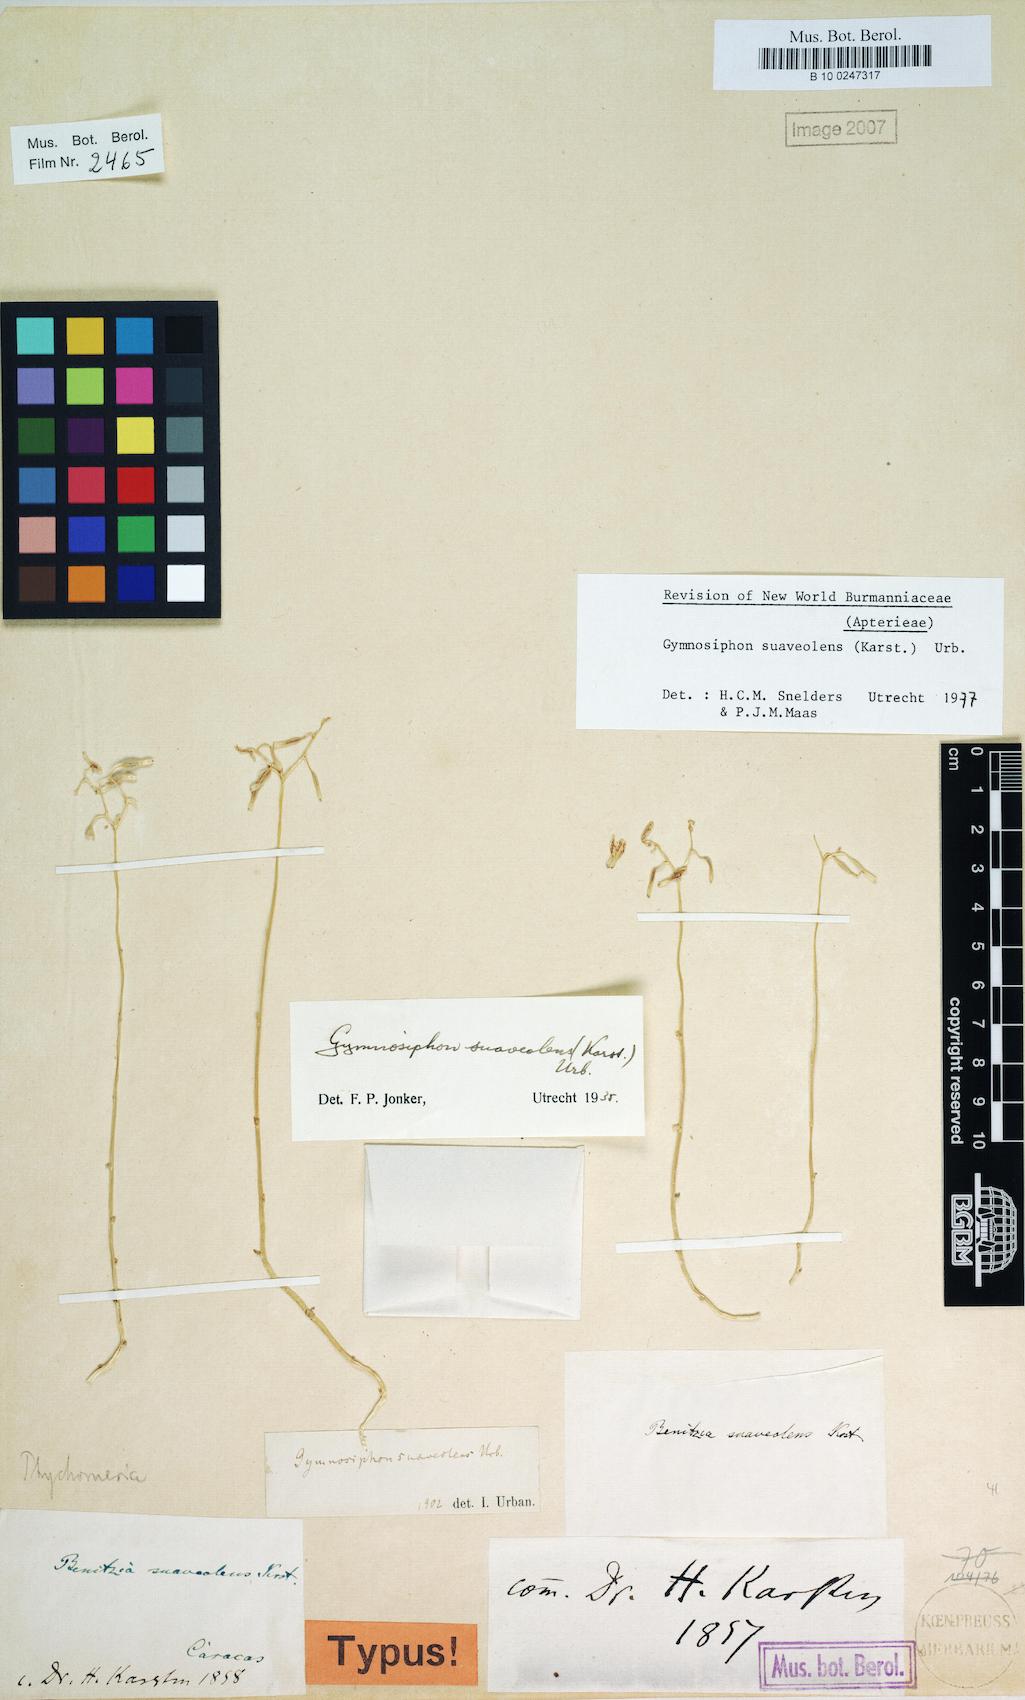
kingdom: Plantae
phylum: Tracheophyta
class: Liliopsida
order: Dioscoreales
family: Burmanniaceae
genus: Gymnosiphon
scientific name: Gymnosiphon suaveolens
